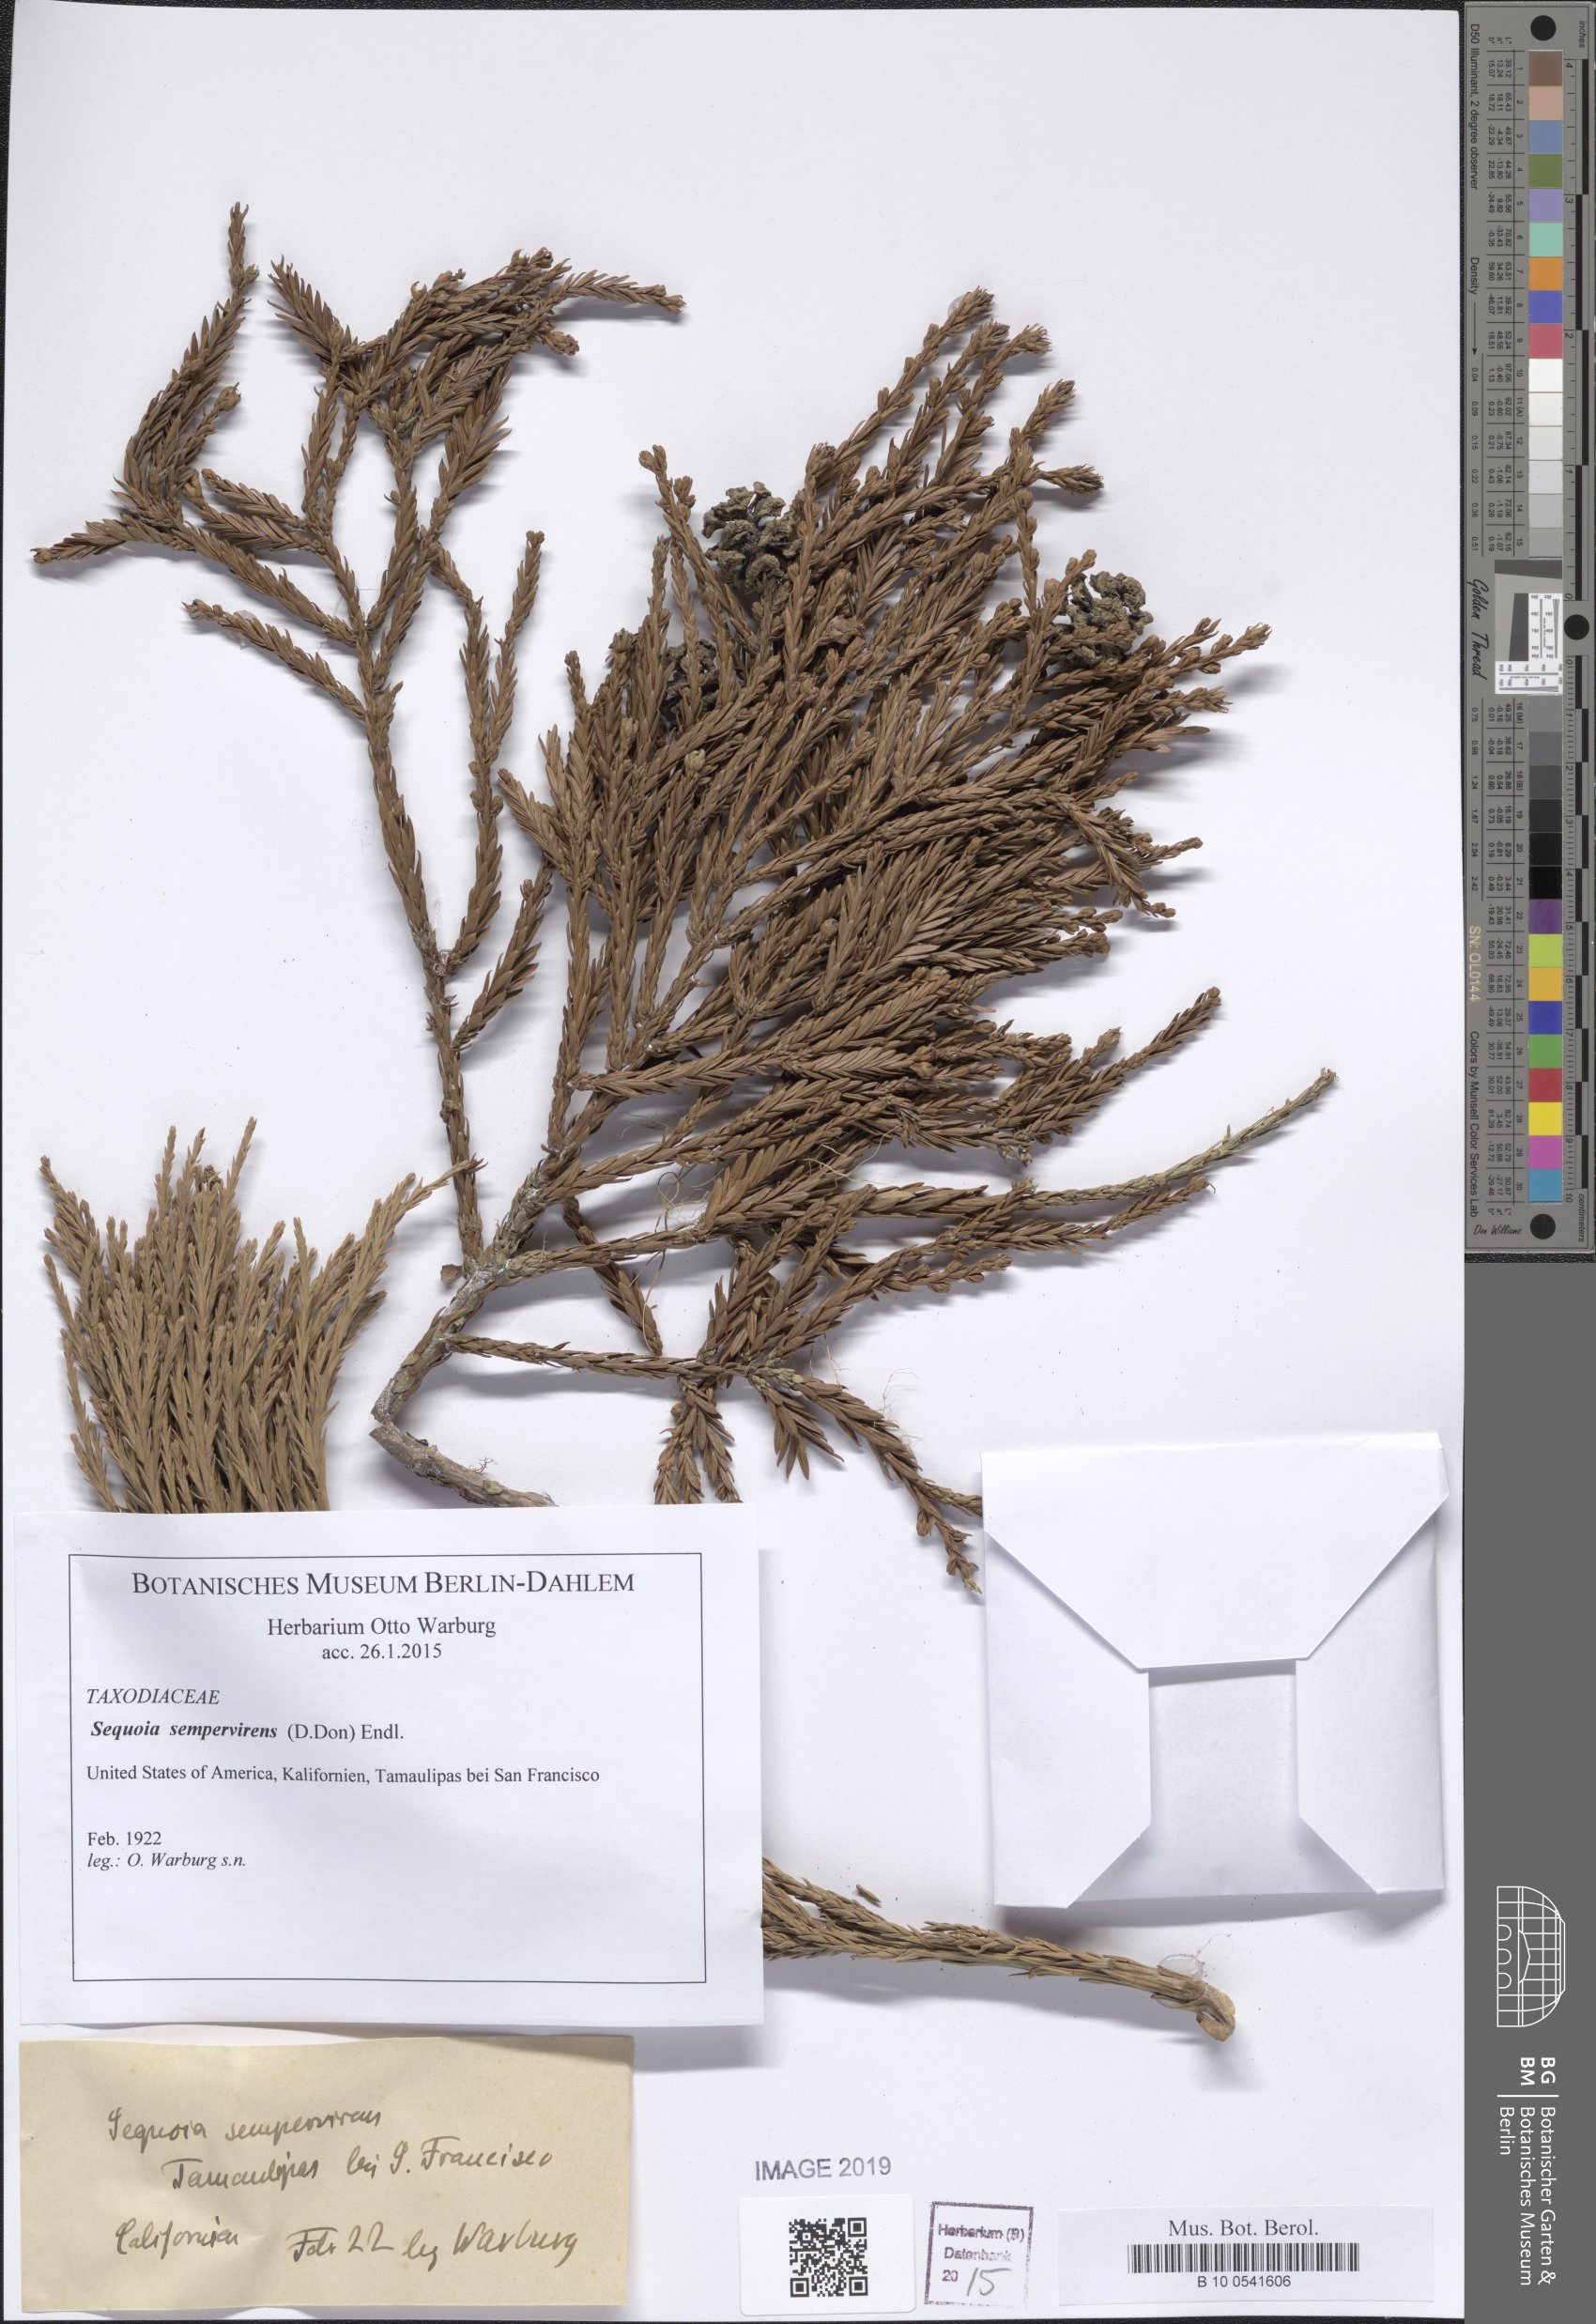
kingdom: Plantae
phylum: Tracheophyta
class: Pinopsida
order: Pinales
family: Cupressaceae
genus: Sequoia
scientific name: Sequoia sempervirens
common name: Coast redwood
